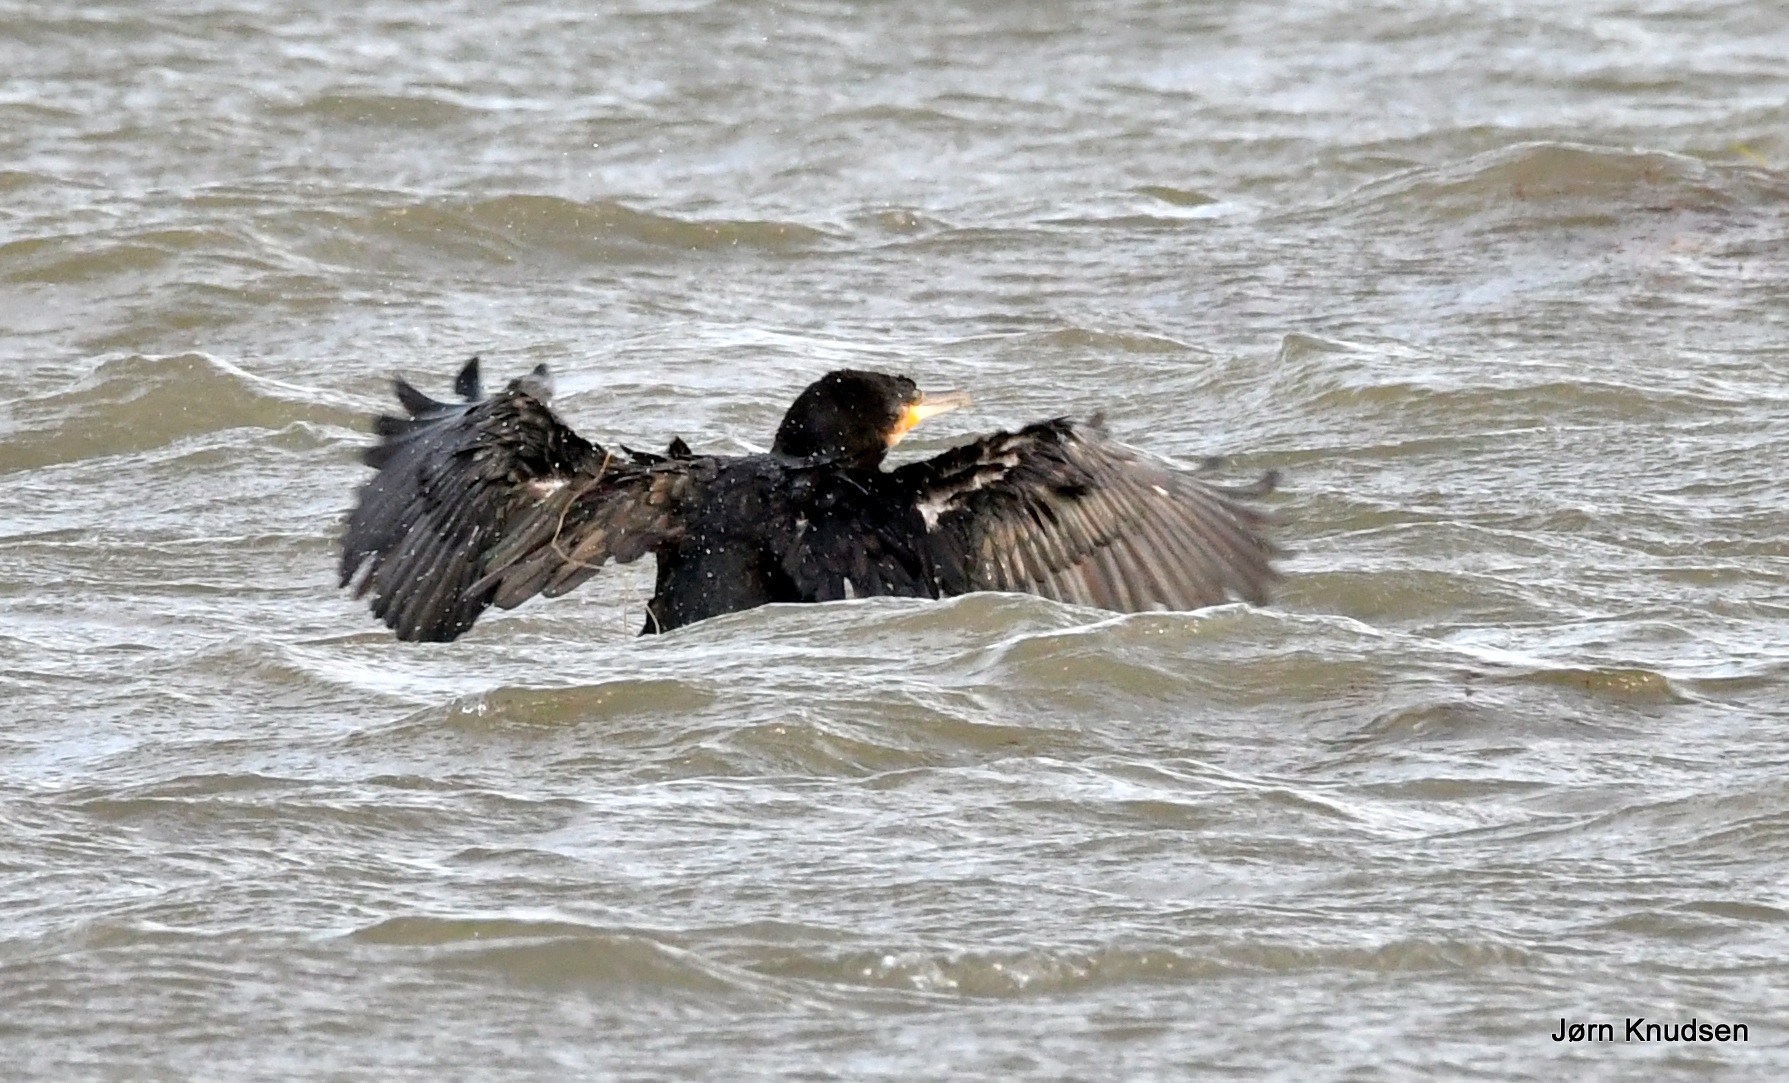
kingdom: Animalia
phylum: Chordata
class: Aves
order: Suliformes
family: Phalacrocoracidae
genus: Phalacrocorax
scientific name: Phalacrocorax carbo
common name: Skarv
